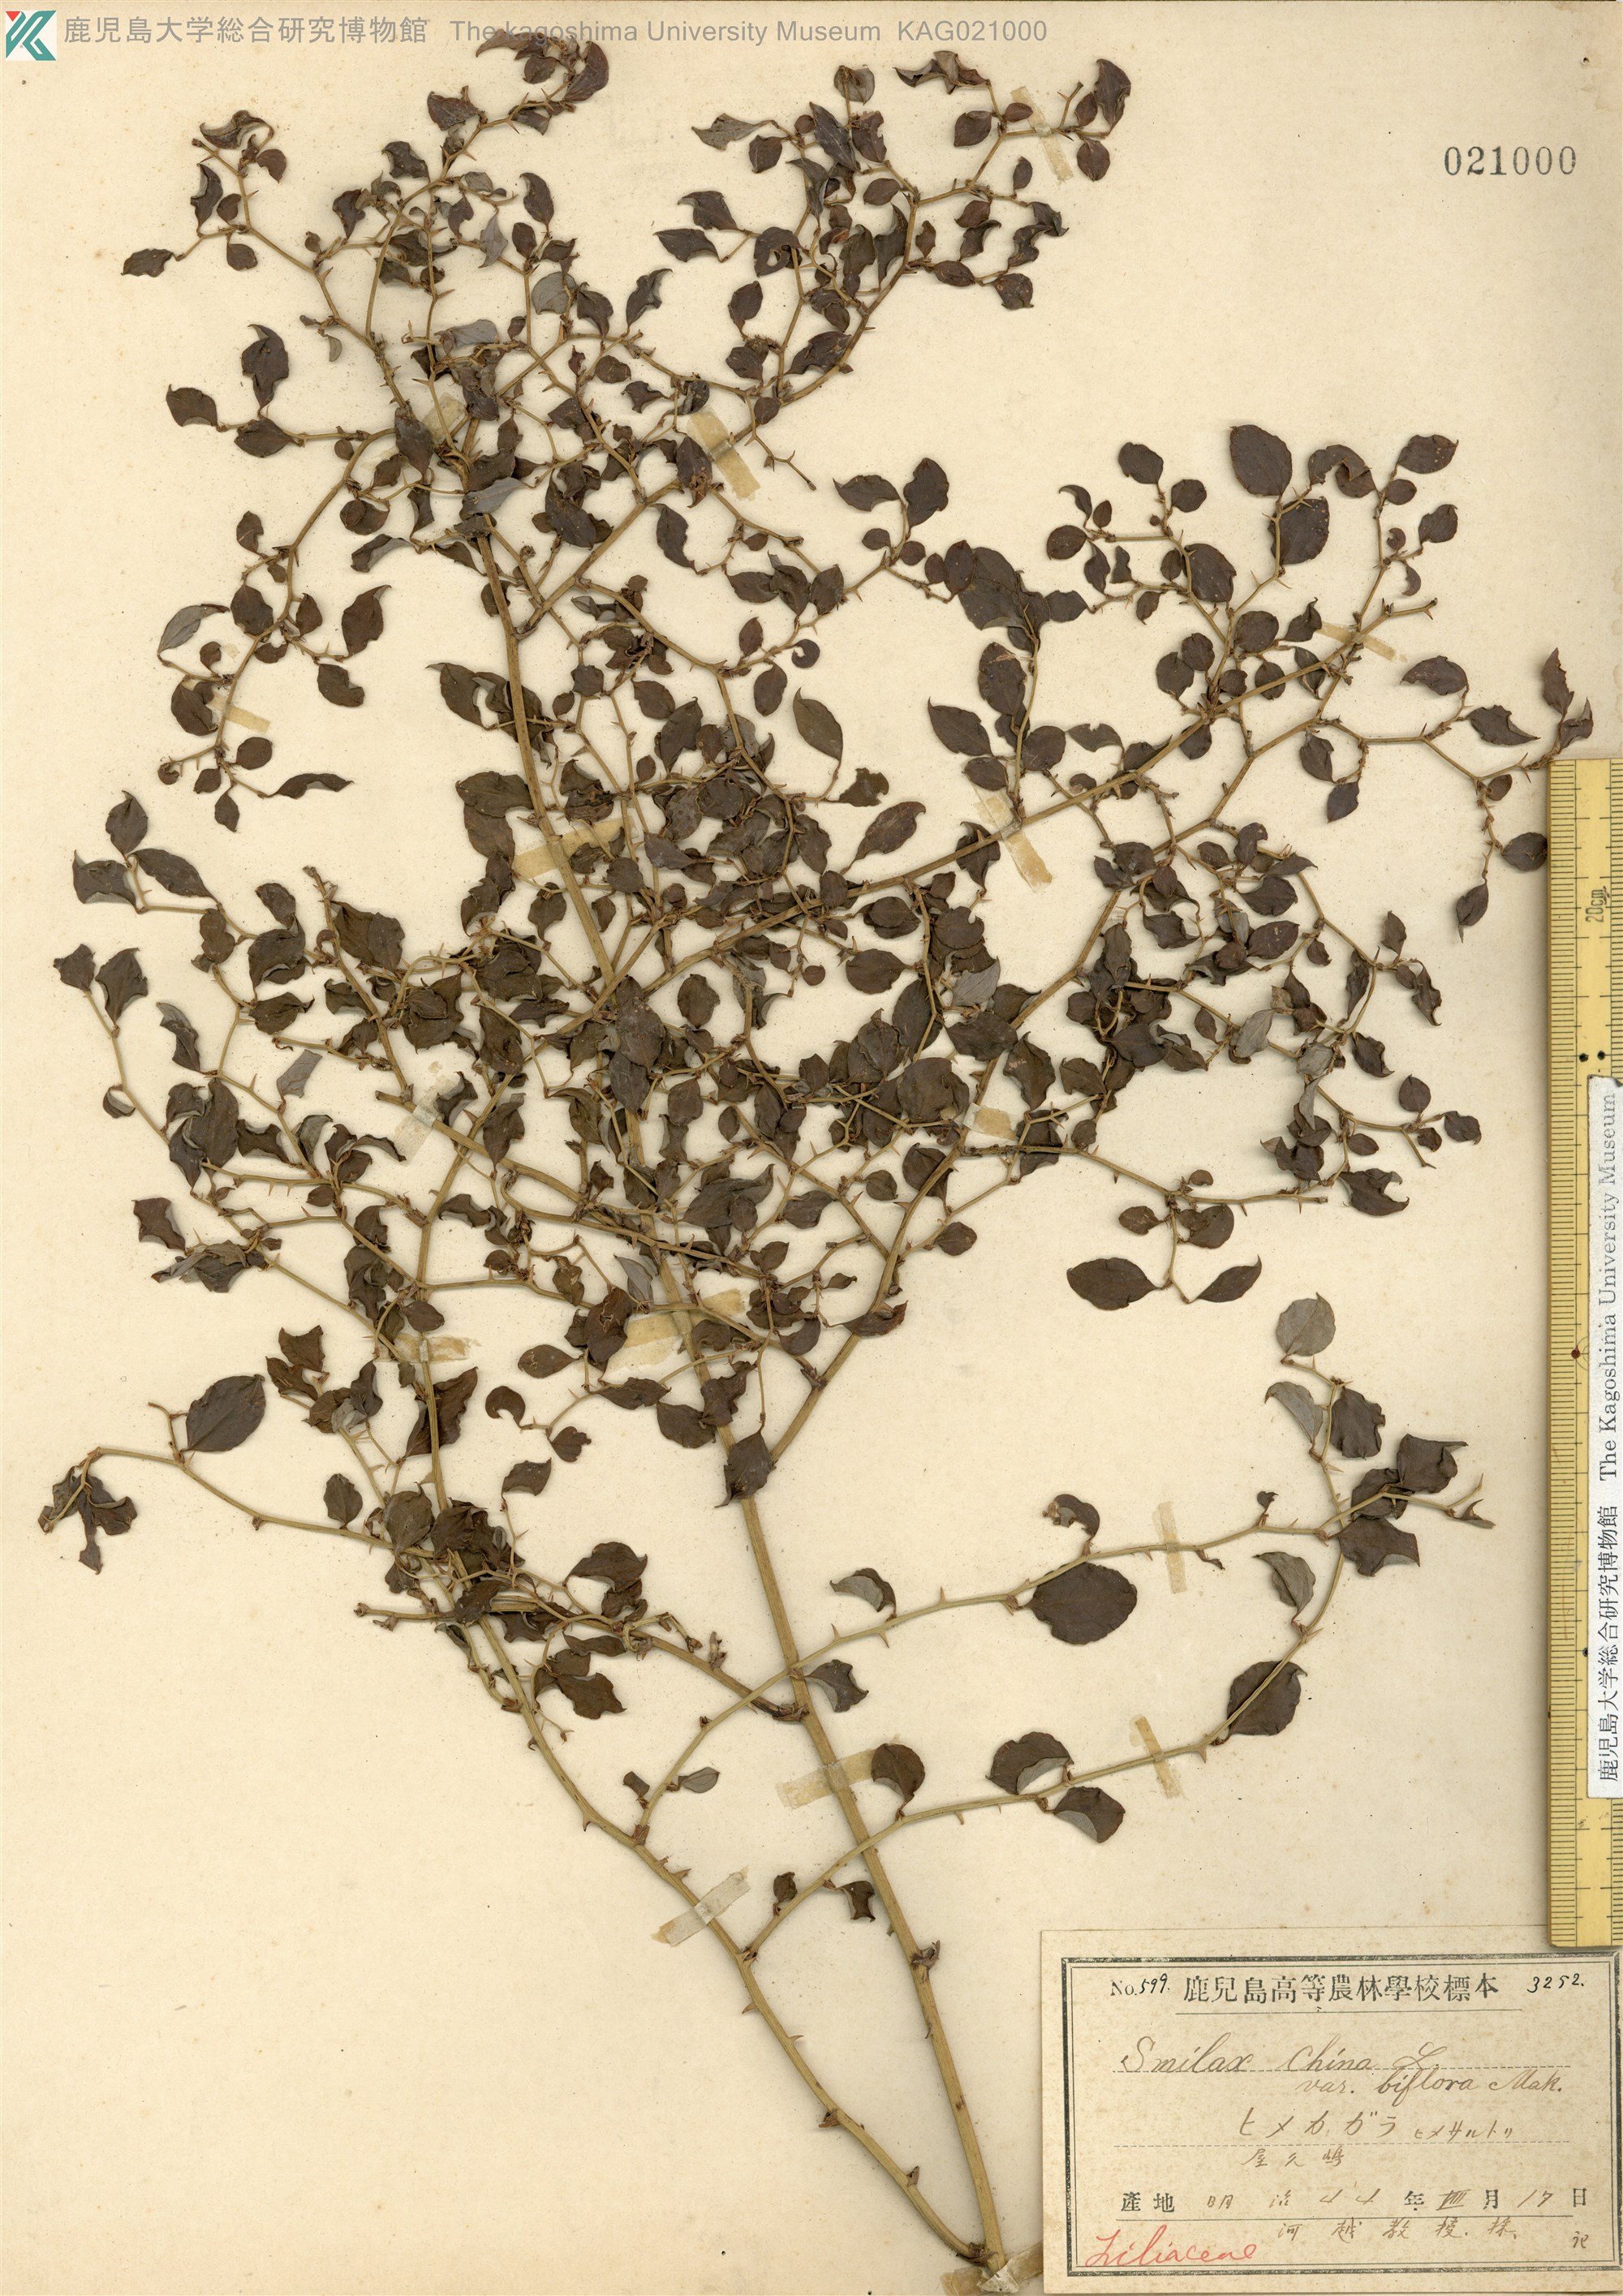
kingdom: Plantae
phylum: Tracheophyta
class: Liliopsida
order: Liliales
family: Smilacaceae
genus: Smilax
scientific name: Smilax biflora
